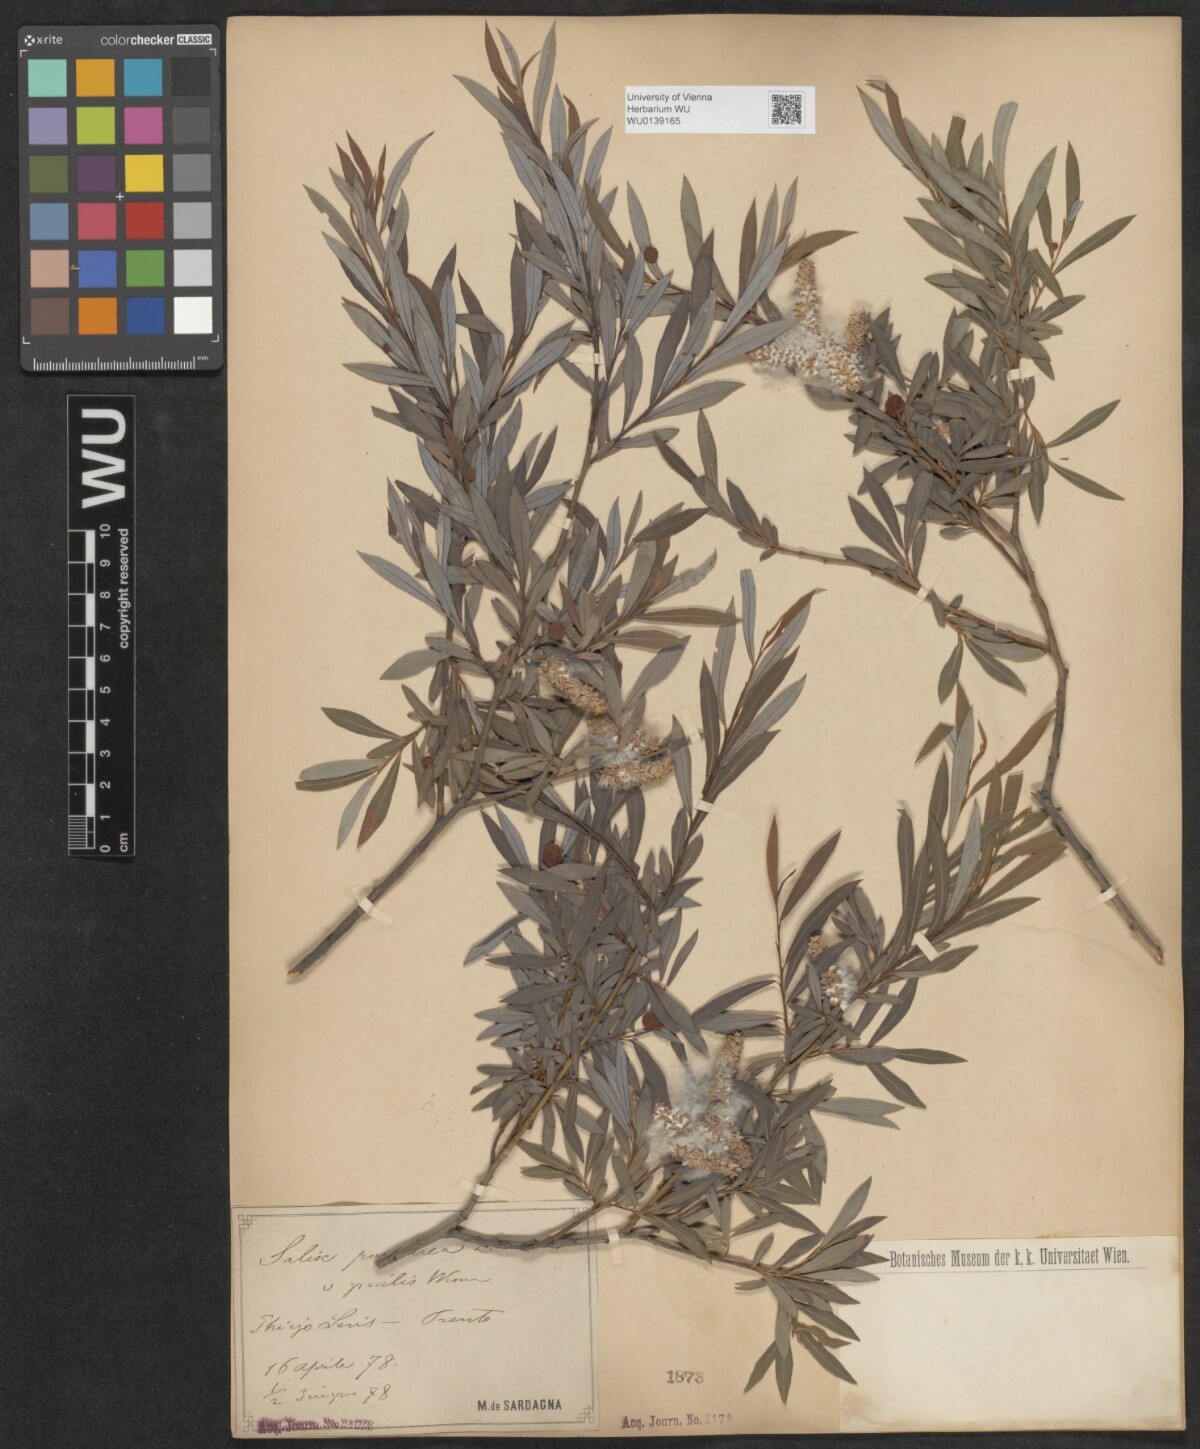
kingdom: Plantae
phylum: Tracheophyta
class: Magnoliopsida
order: Malpighiales
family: Salicaceae
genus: Salix
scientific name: Salix purpurea
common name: Purple willow
